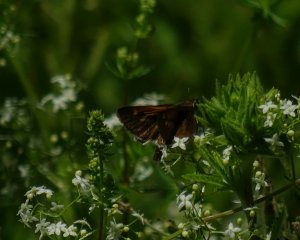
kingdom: Animalia
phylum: Arthropoda
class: Insecta
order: Lepidoptera
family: Hesperiidae
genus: Polites
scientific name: Polites themistocles
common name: Tawny-edged Skipper
